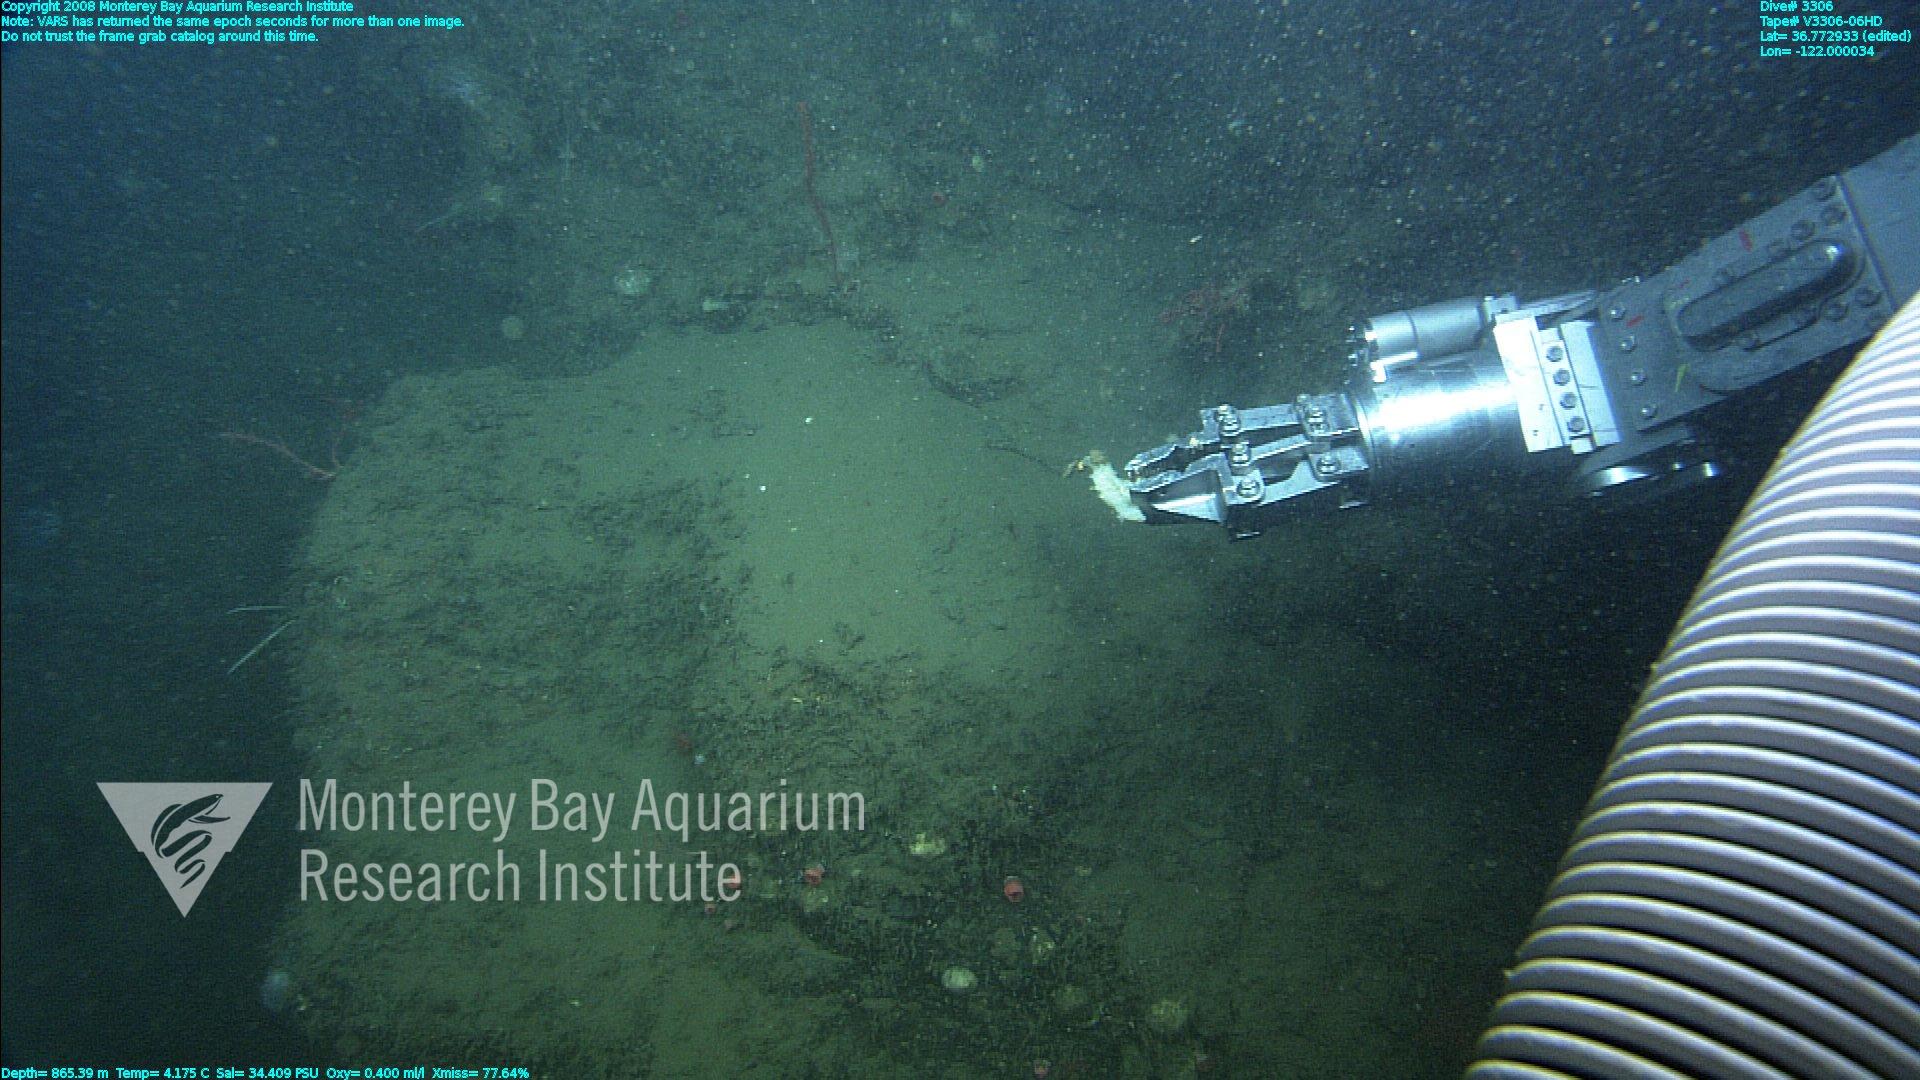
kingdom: Animalia
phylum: Porifera
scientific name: Porifera
